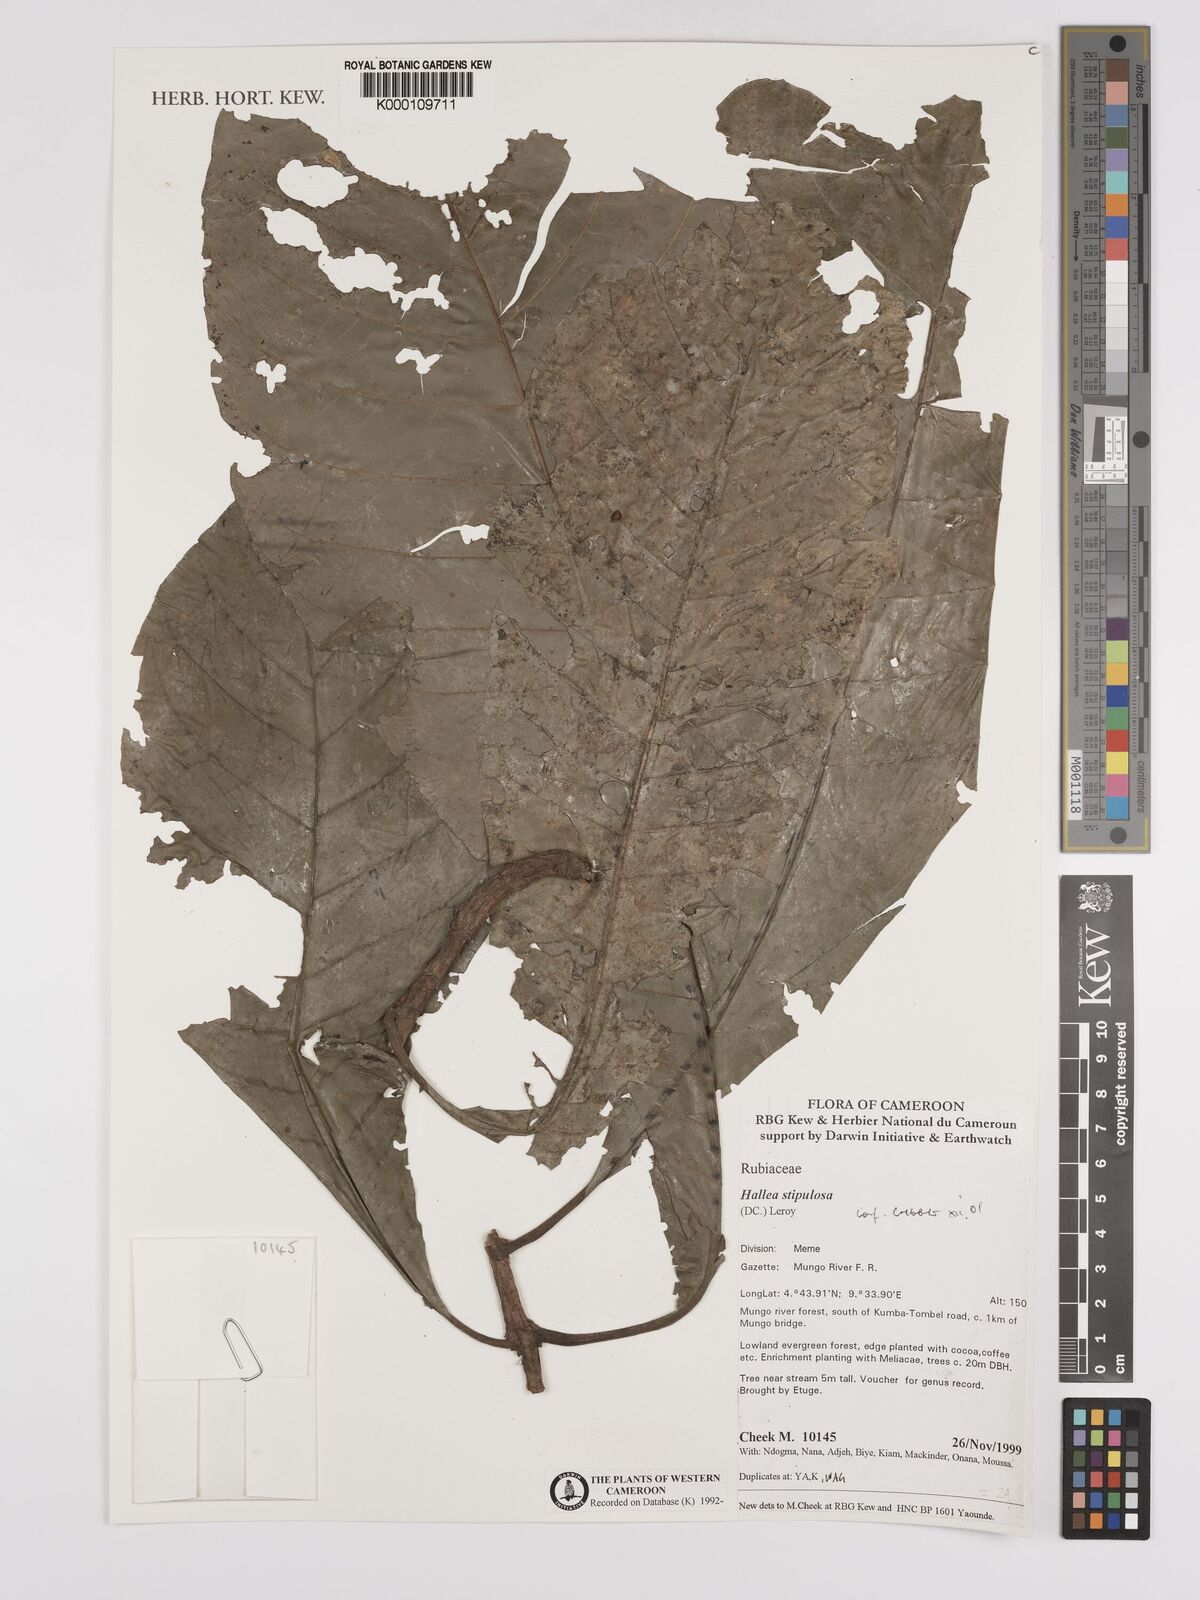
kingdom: Plantae
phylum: Tracheophyta
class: Magnoliopsida
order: Gentianales
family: Rubiaceae
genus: Mitragyna
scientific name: Mitragyna stipulosa
